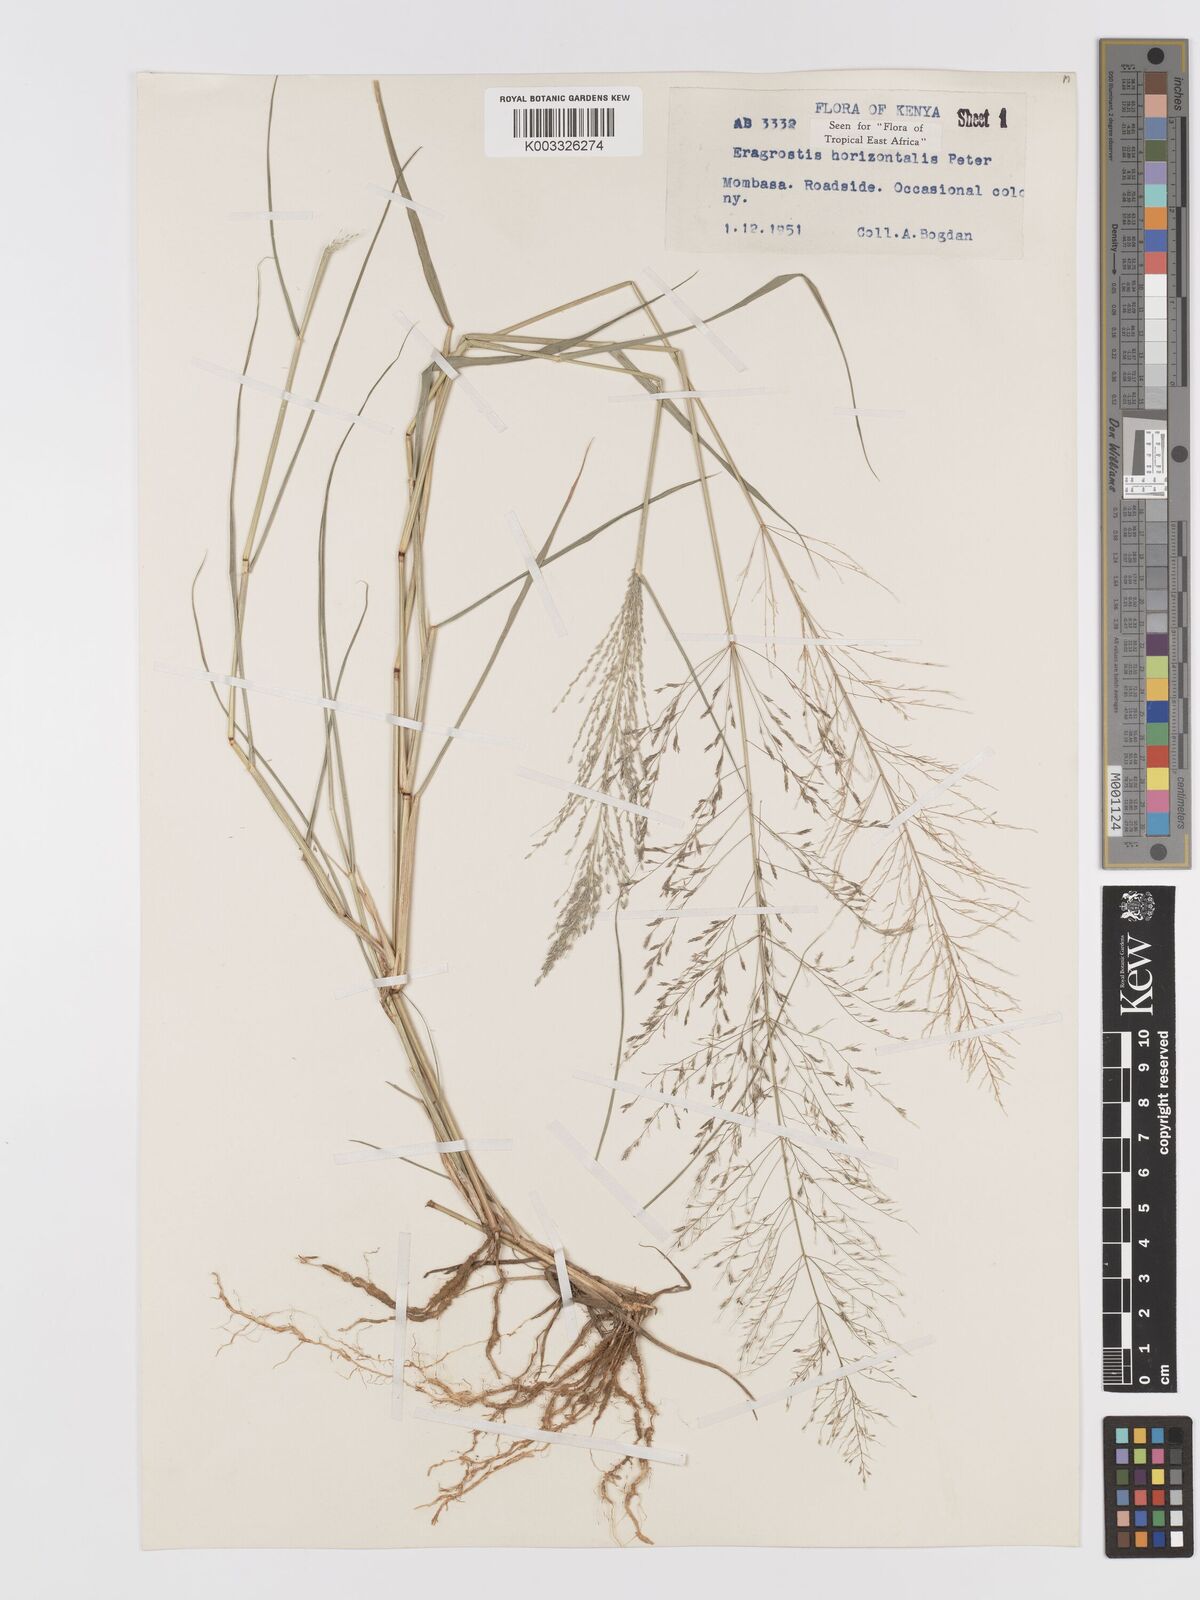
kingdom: Plantae
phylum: Tracheophyta
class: Liliopsida
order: Poales
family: Poaceae
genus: Eragrostis
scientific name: Eragrostis cylindriflora
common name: Cylinderflower lovegrass
